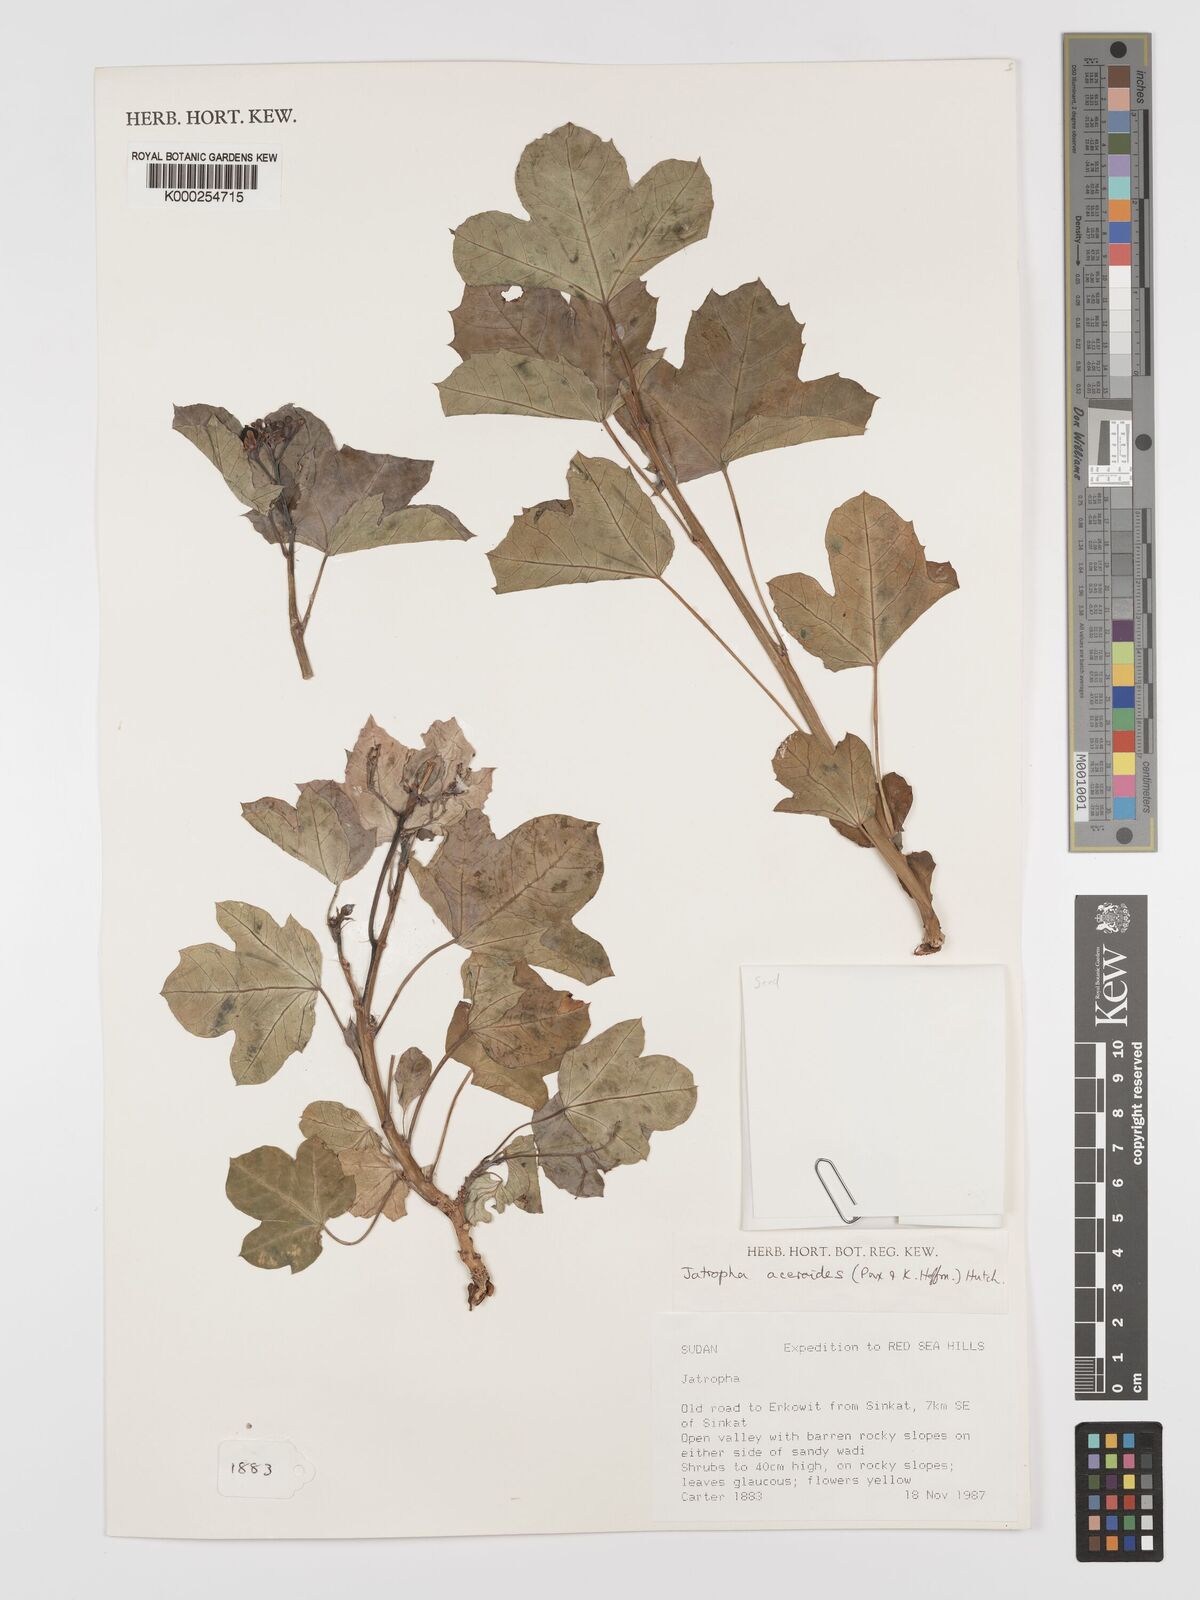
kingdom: Plantae
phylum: Tracheophyta
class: Magnoliopsida
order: Malpighiales
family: Euphorbiaceae
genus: Jatropha
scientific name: Jatropha aceroides
